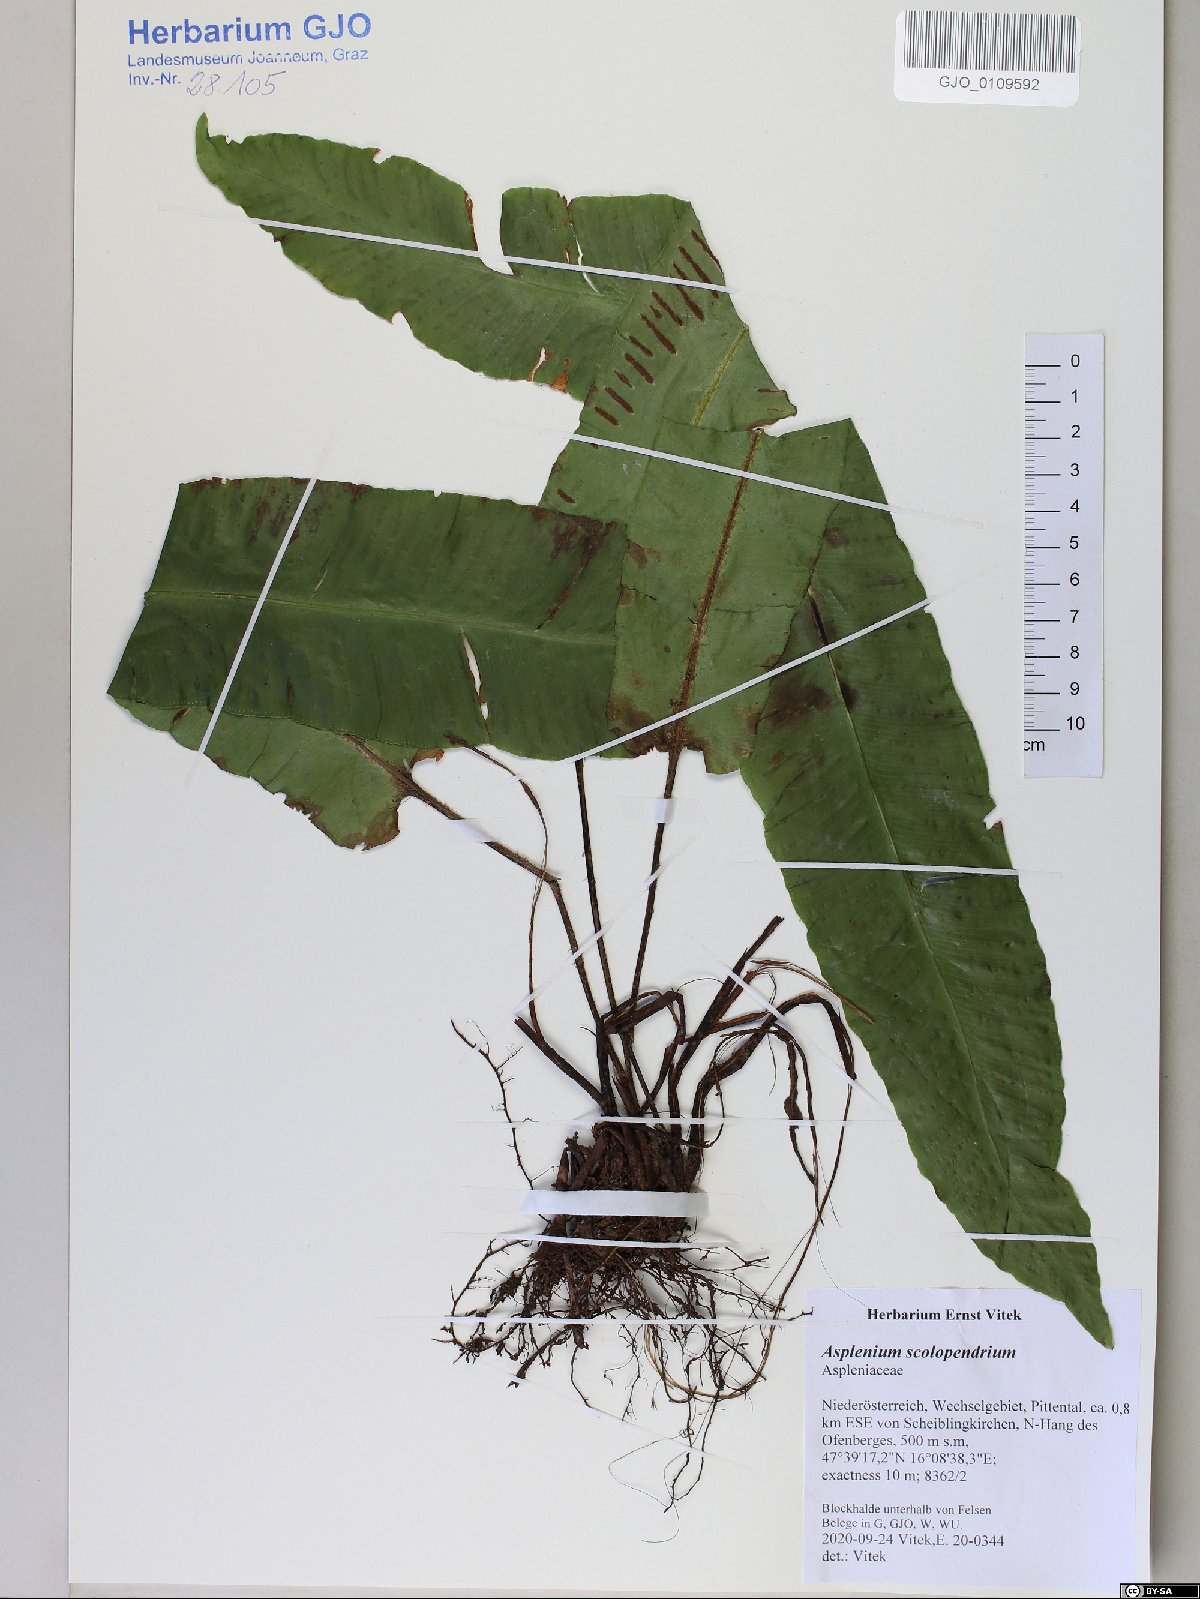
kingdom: Plantae
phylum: Tracheophyta
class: Magnoliopsida
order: Caryophyllales
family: Cactaceae
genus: Consolea
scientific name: Consolea rubescens
